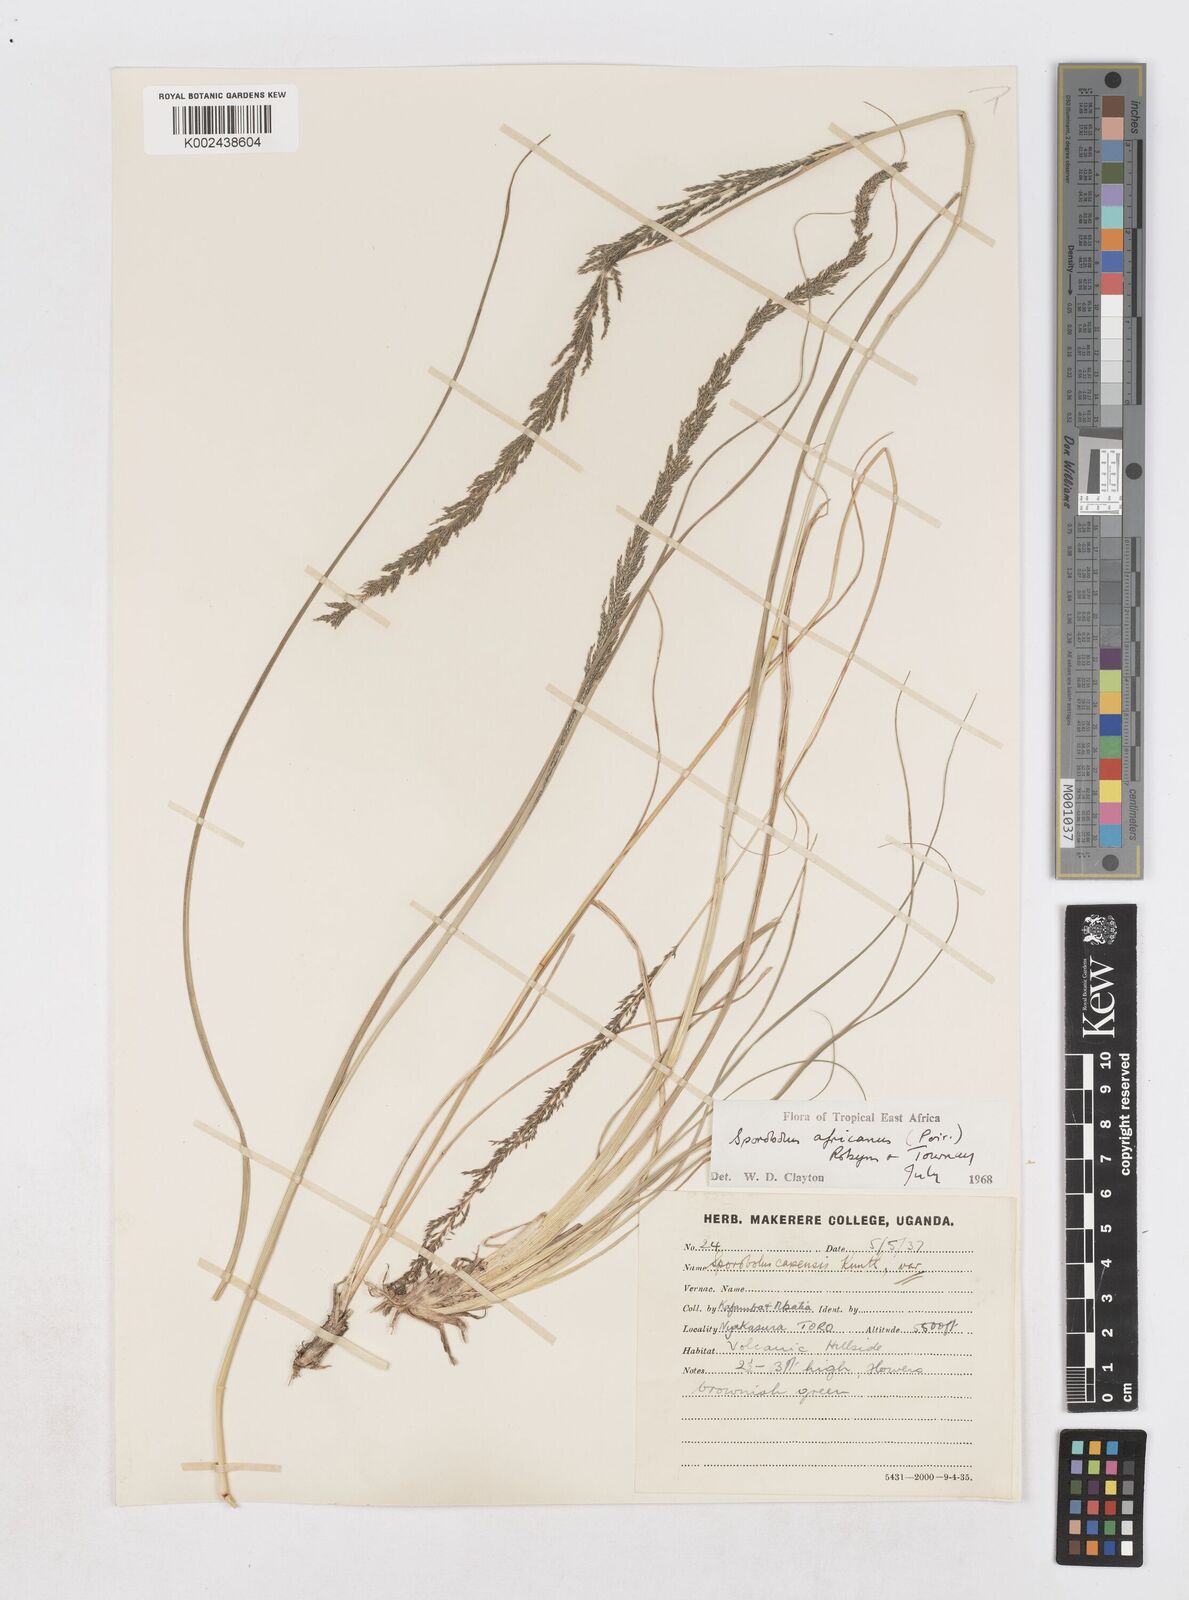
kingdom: Plantae
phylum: Tracheophyta
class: Liliopsida
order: Poales
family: Poaceae
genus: Sporobolus
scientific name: Sporobolus africanus
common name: African dropseed
